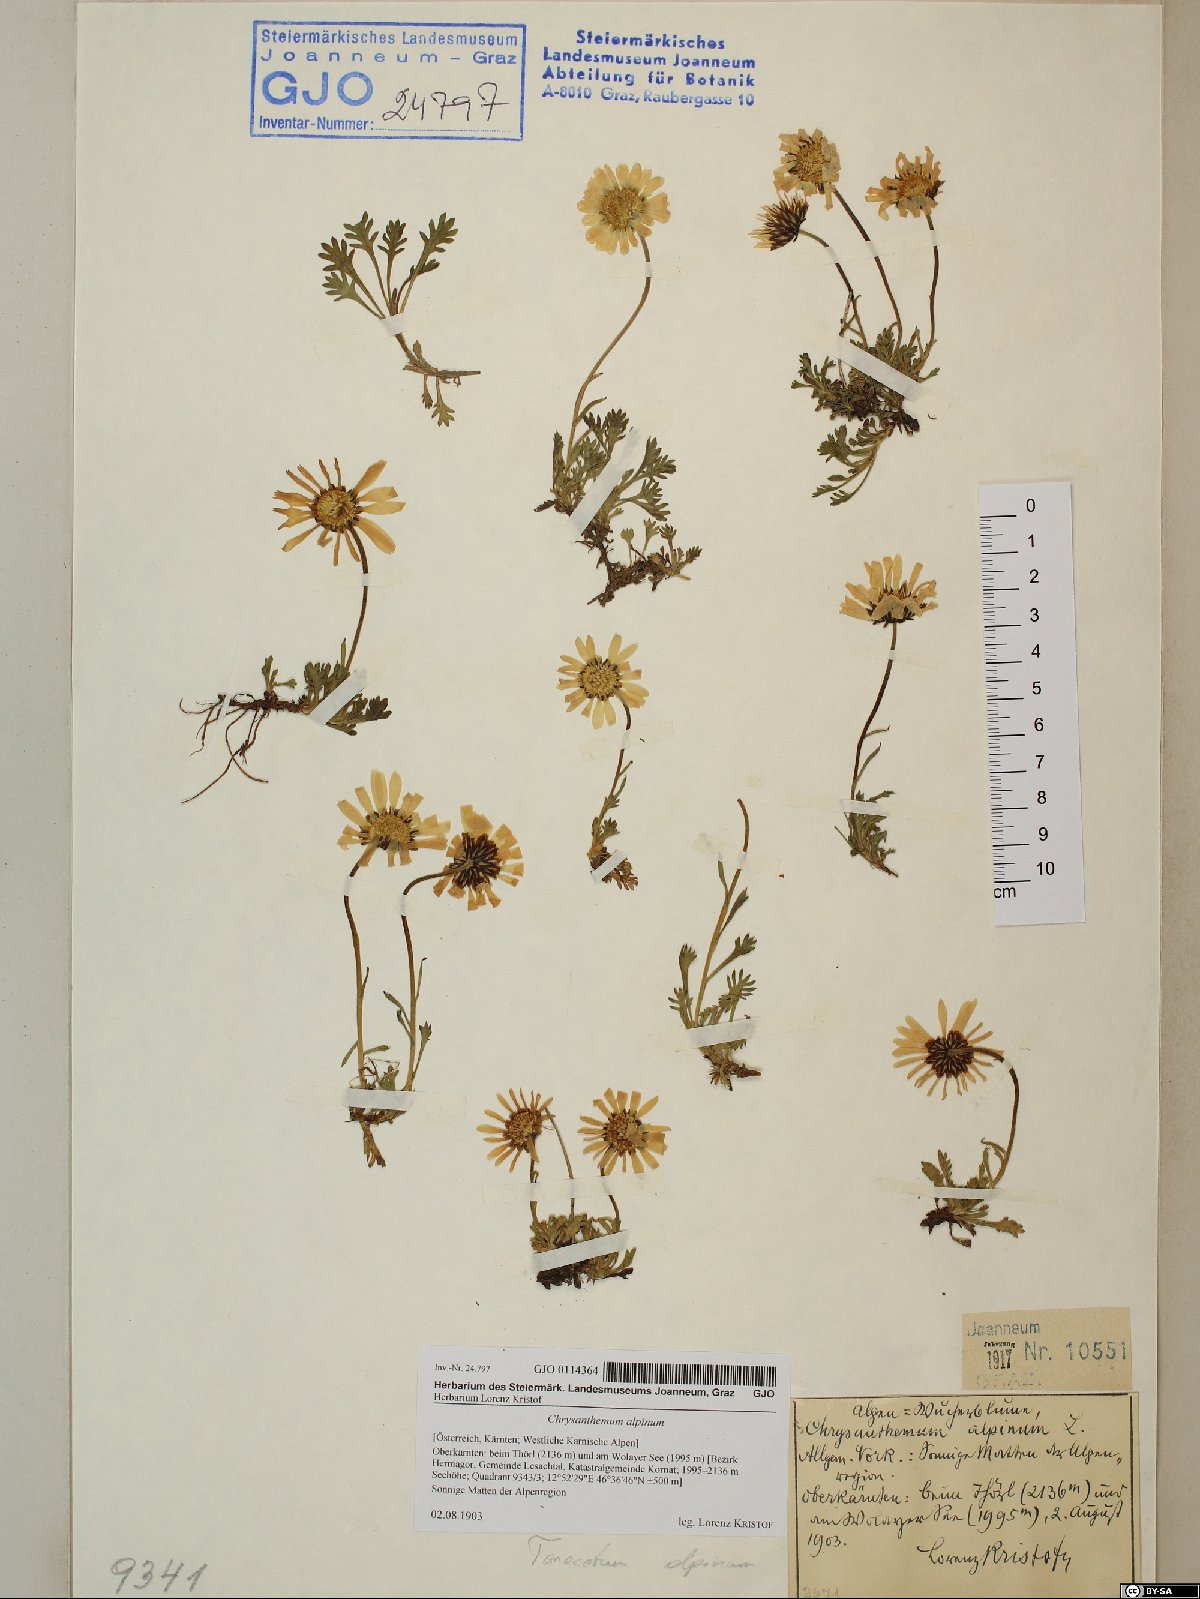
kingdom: Plantae
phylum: Tracheophyta
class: Magnoliopsida
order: Asterales
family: Asteraceae
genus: Leucanthemopsis
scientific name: Leucanthemopsis alpina
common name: Alpine moon daisy
